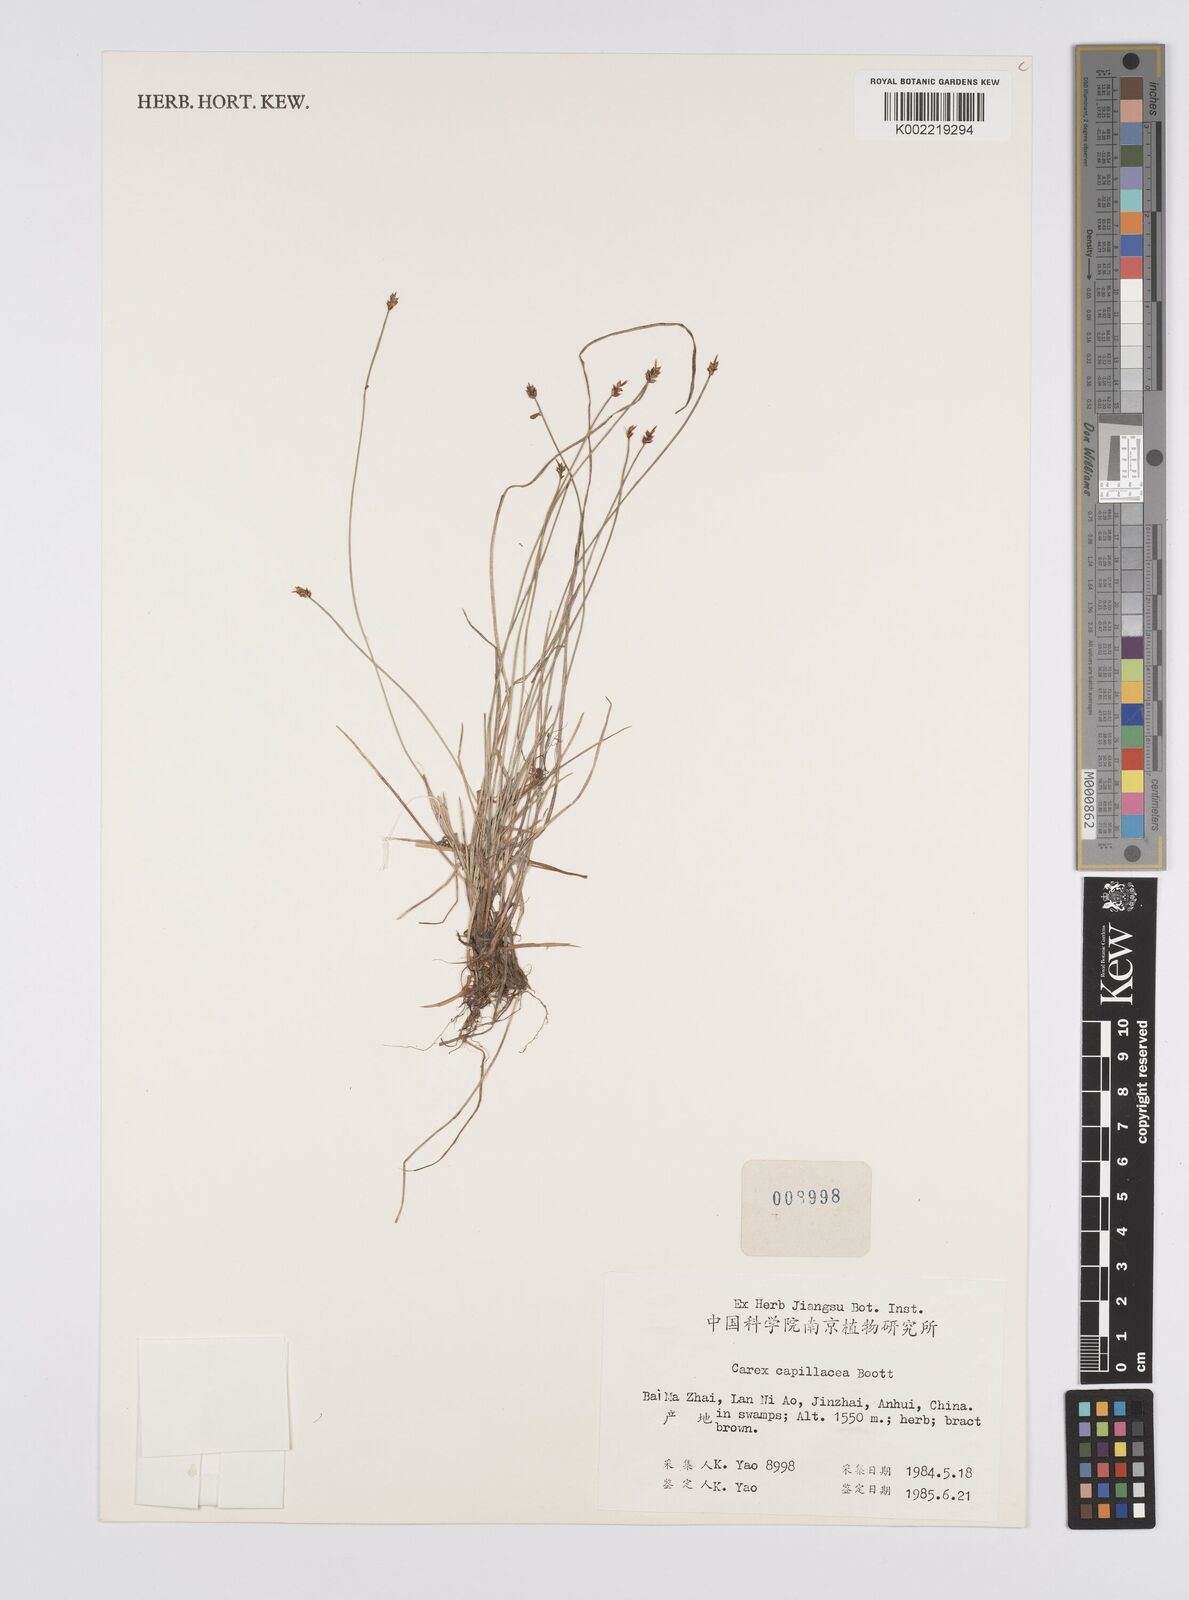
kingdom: Plantae
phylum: Tracheophyta
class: Liliopsida
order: Poales
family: Cyperaceae
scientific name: Cyperaceae
